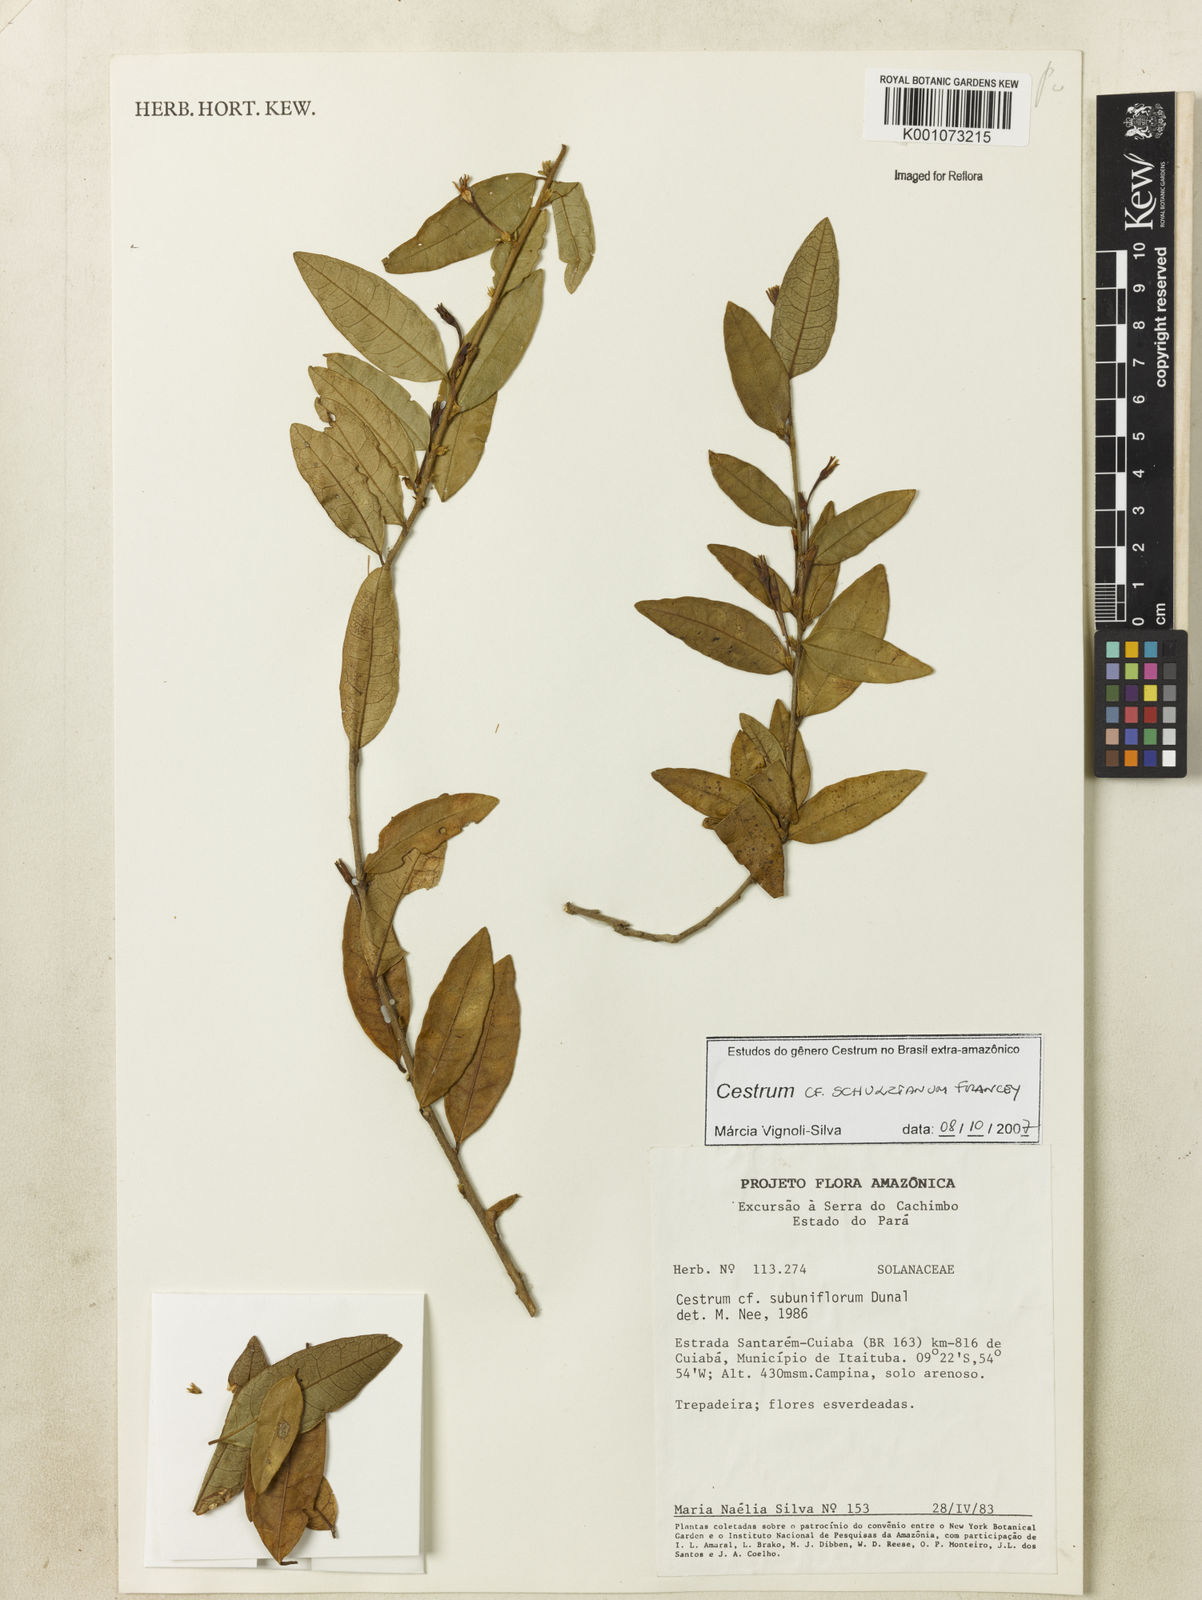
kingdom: Plantae
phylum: Tracheophyta
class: Magnoliopsida
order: Solanales
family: Solanaceae
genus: Cestrum
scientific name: Cestrum schulzianum
